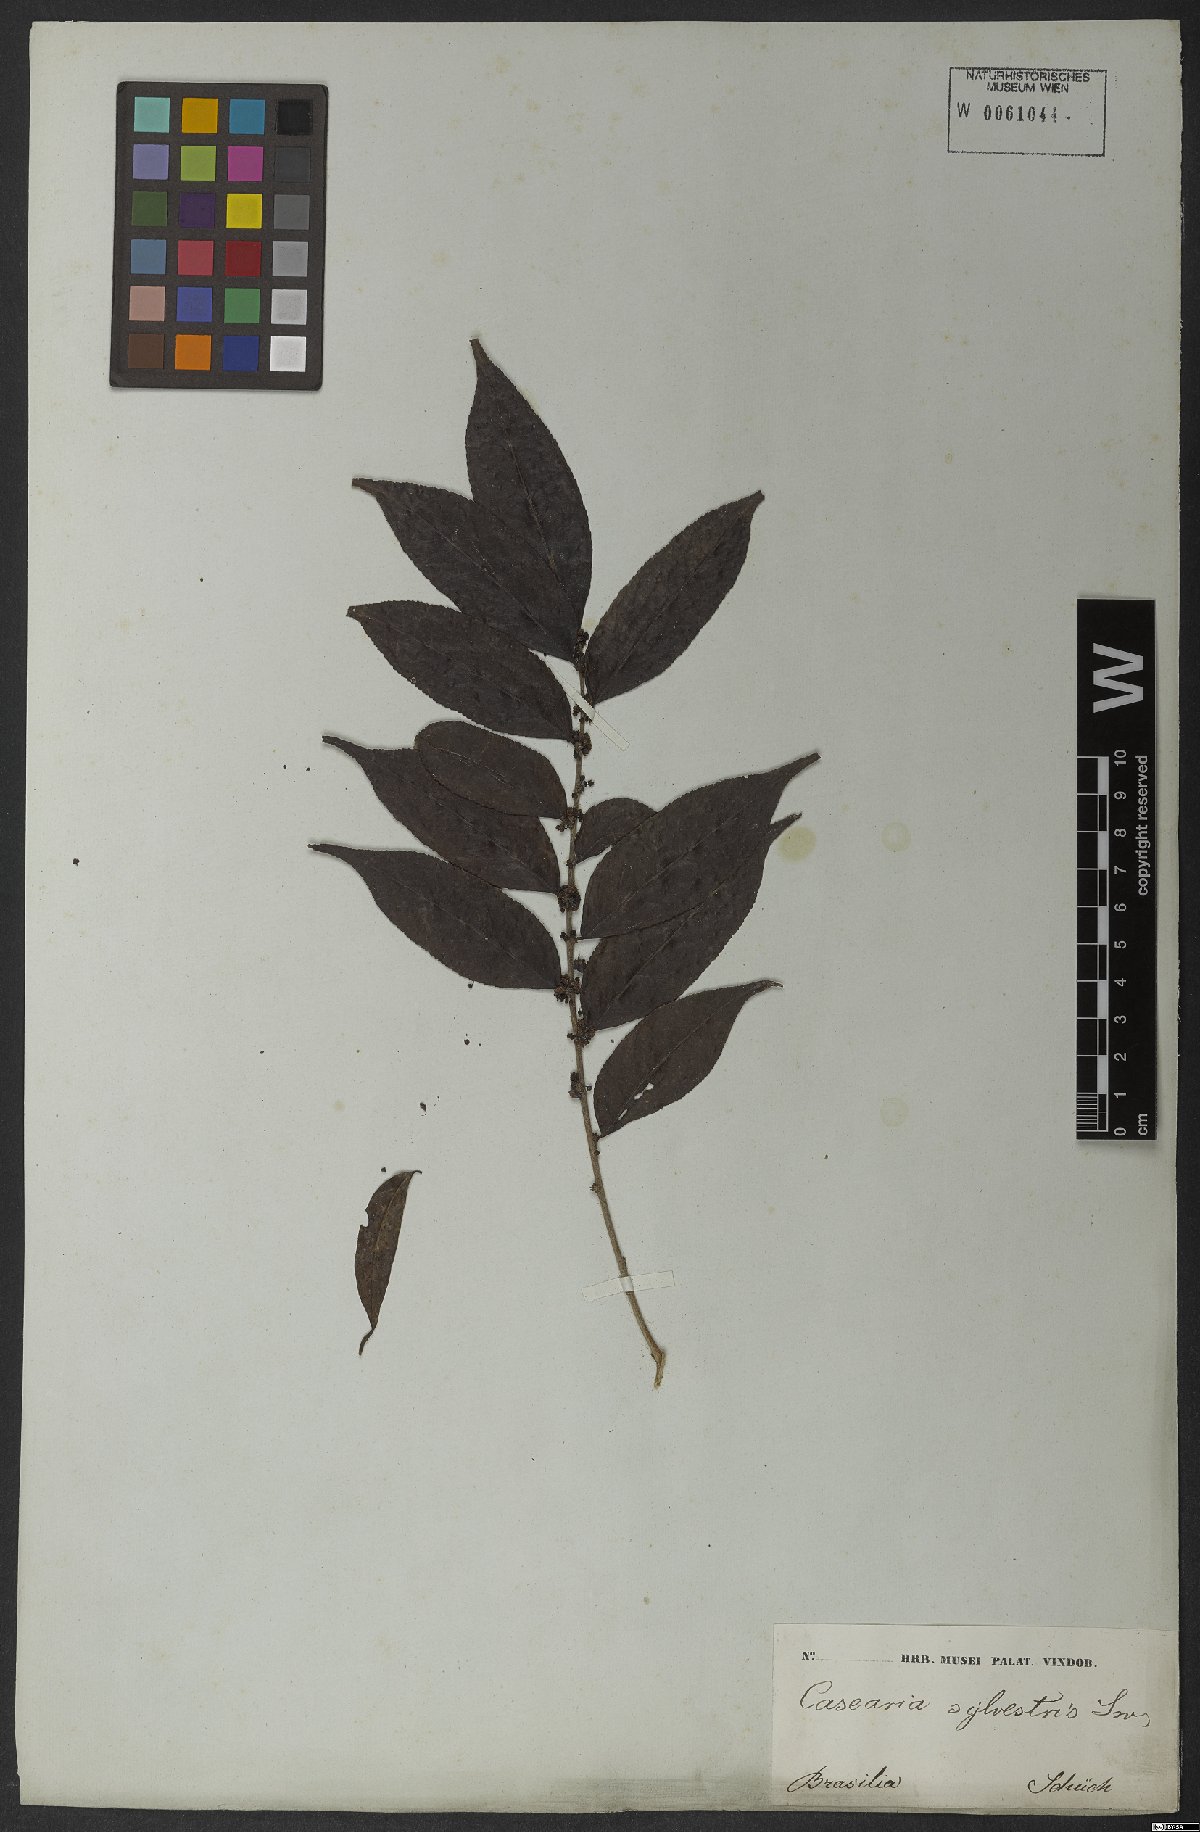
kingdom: Plantae
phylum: Tracheophyta
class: Magnoliopsida
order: Malpighiales
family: Salicaceae
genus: Casearia
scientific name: Casearia sylvestris
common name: Wild sage
